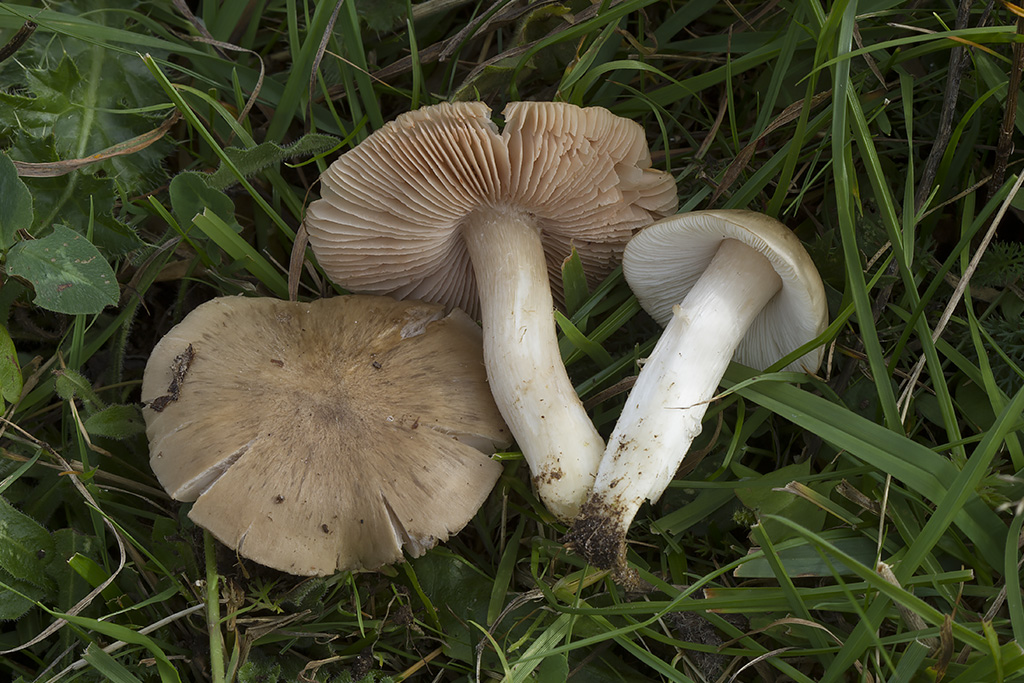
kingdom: Fungi
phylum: Basidiomycota
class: Agaricomycetes
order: Agaricales
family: Entolomataceae
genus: Entoloma
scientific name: Entoloma prunuloides
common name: mel-rødblad
